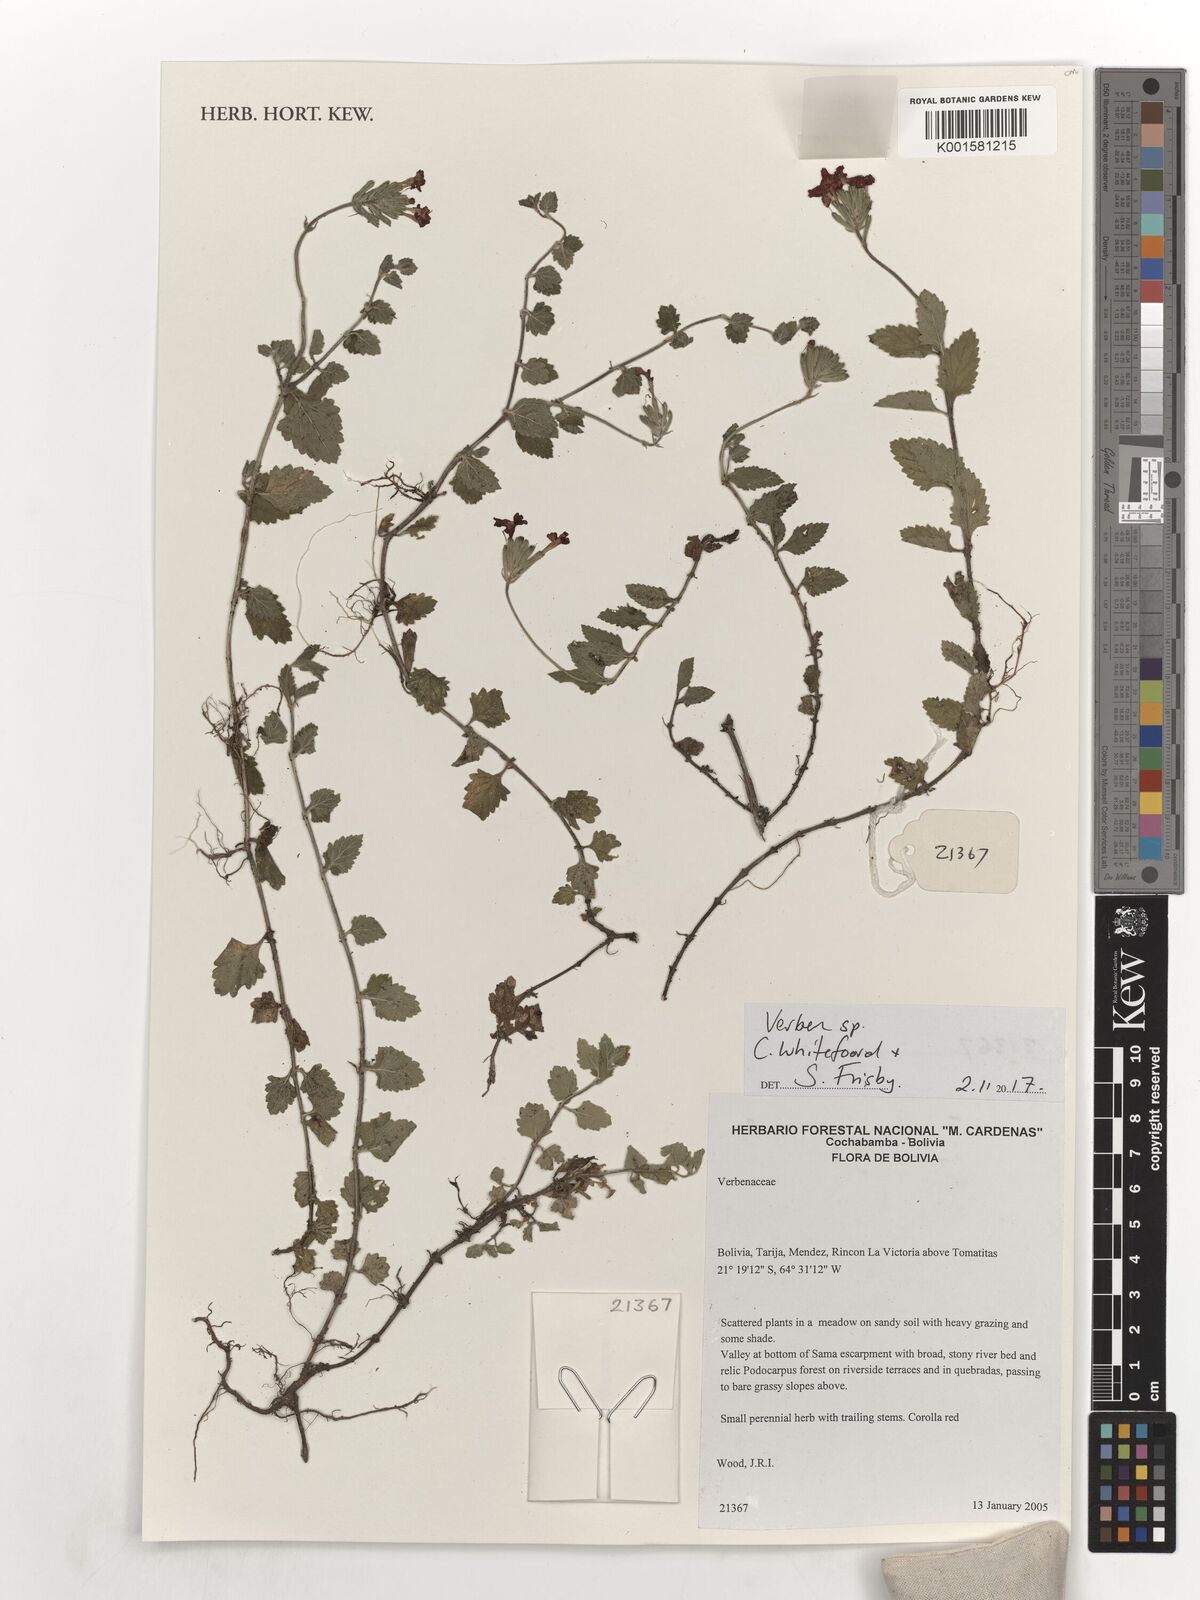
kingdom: Plantae
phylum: Tracheophyta
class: Magnoliopsida
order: Lamiales
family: Verbenaceae
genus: Verbena
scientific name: Verbena
